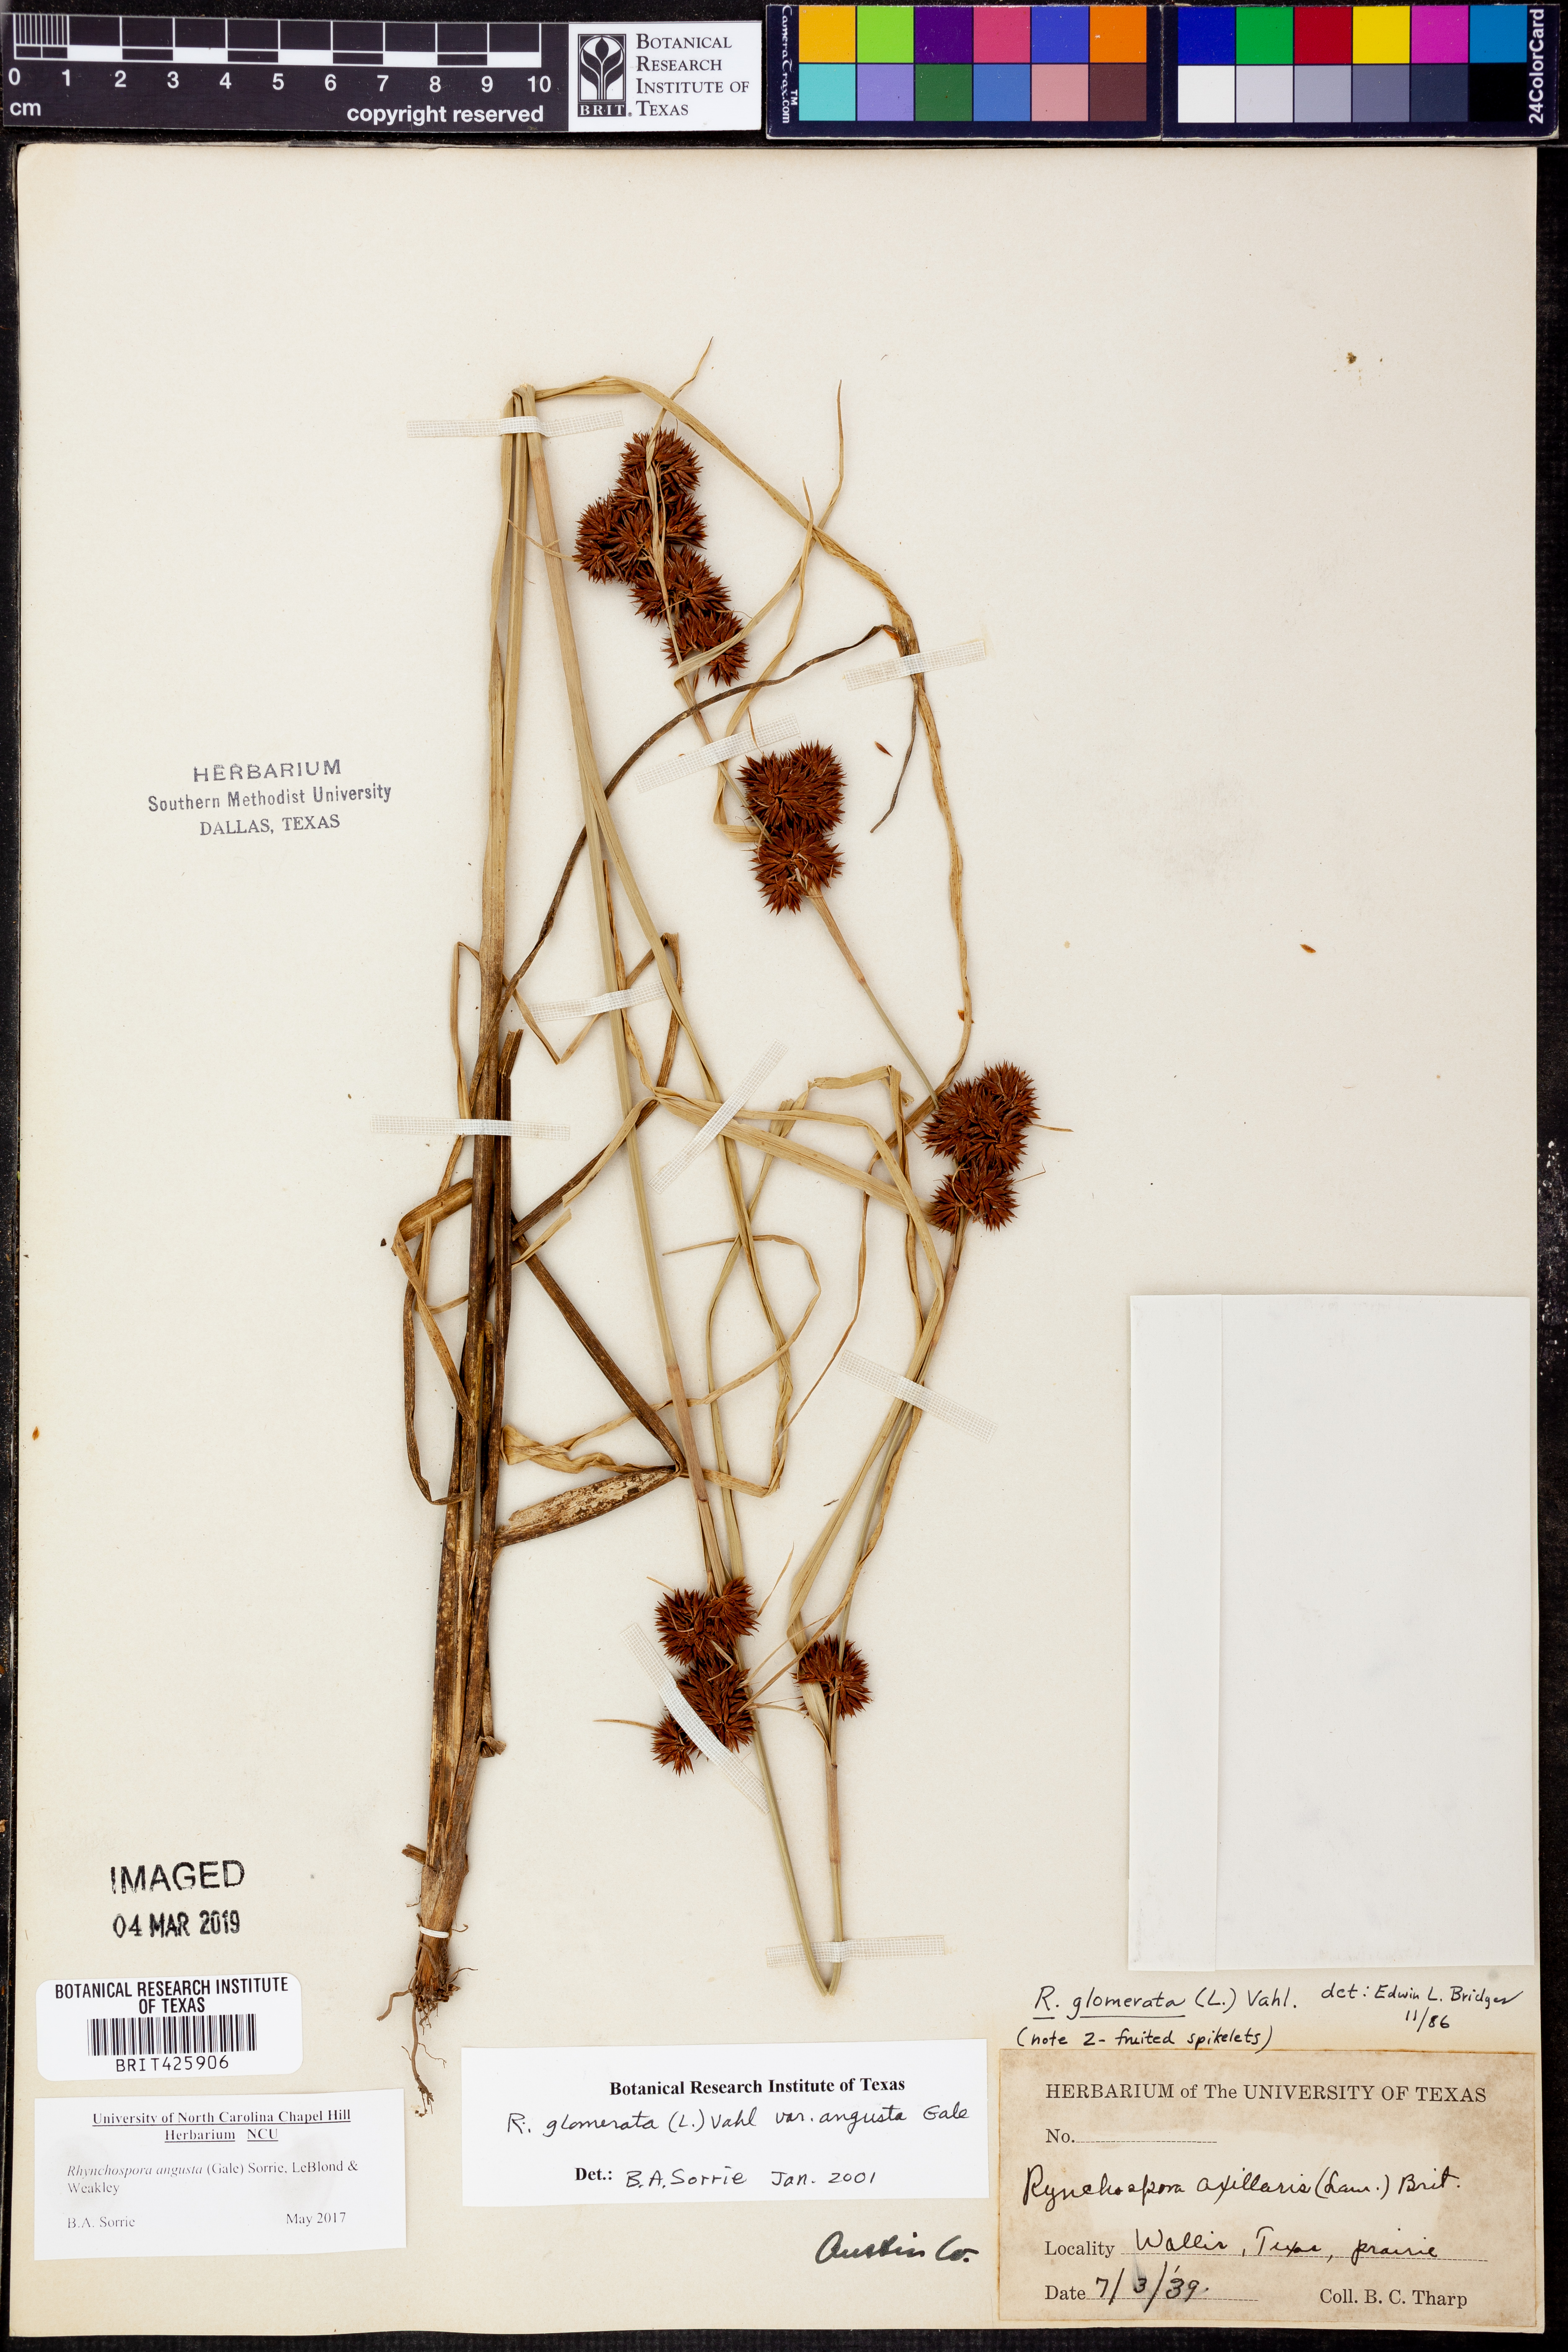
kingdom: Plantae
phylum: Tracheophyta
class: Liliopsida
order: Poales
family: Cyperaceae
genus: Rhynchospora
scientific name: Rhynchospora angusta
